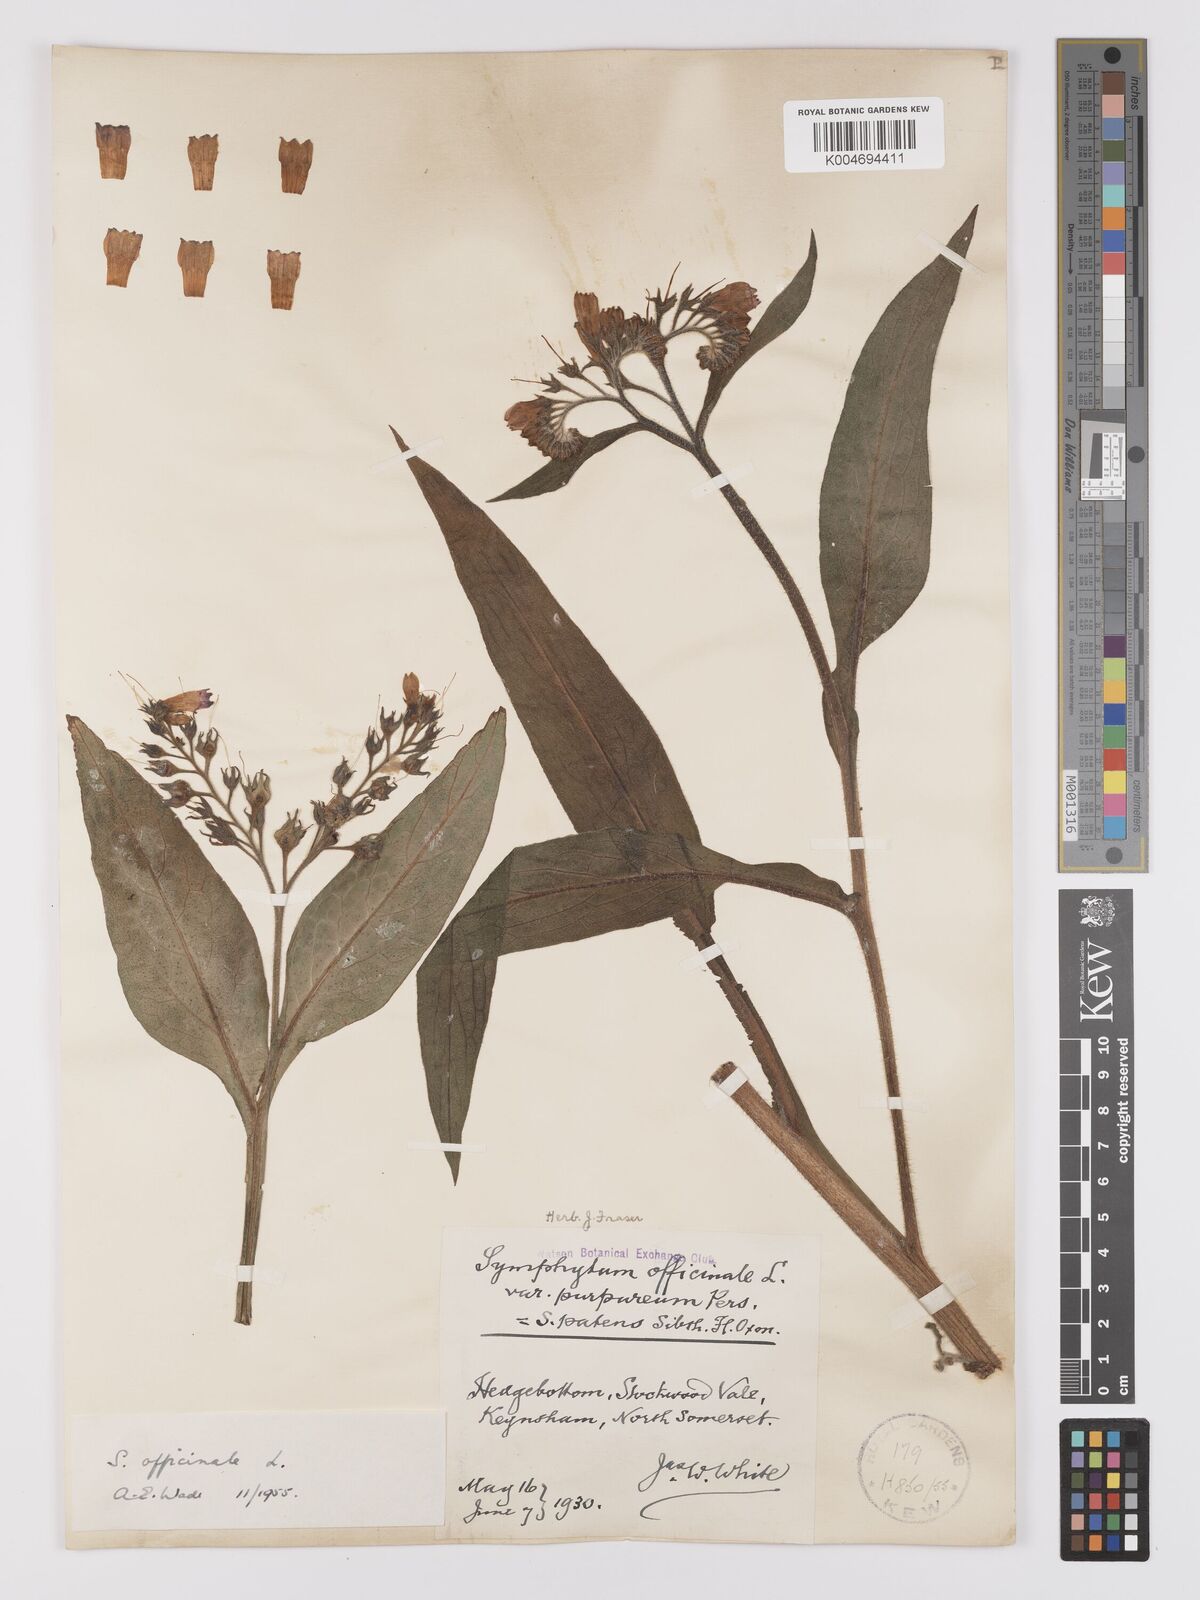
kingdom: Plantae
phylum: Tracheophyta
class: Magnoliopsida
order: Boraginales
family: Boraginaceae
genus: Symphytum
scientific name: Symphytum officinale
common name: Common comfrey
